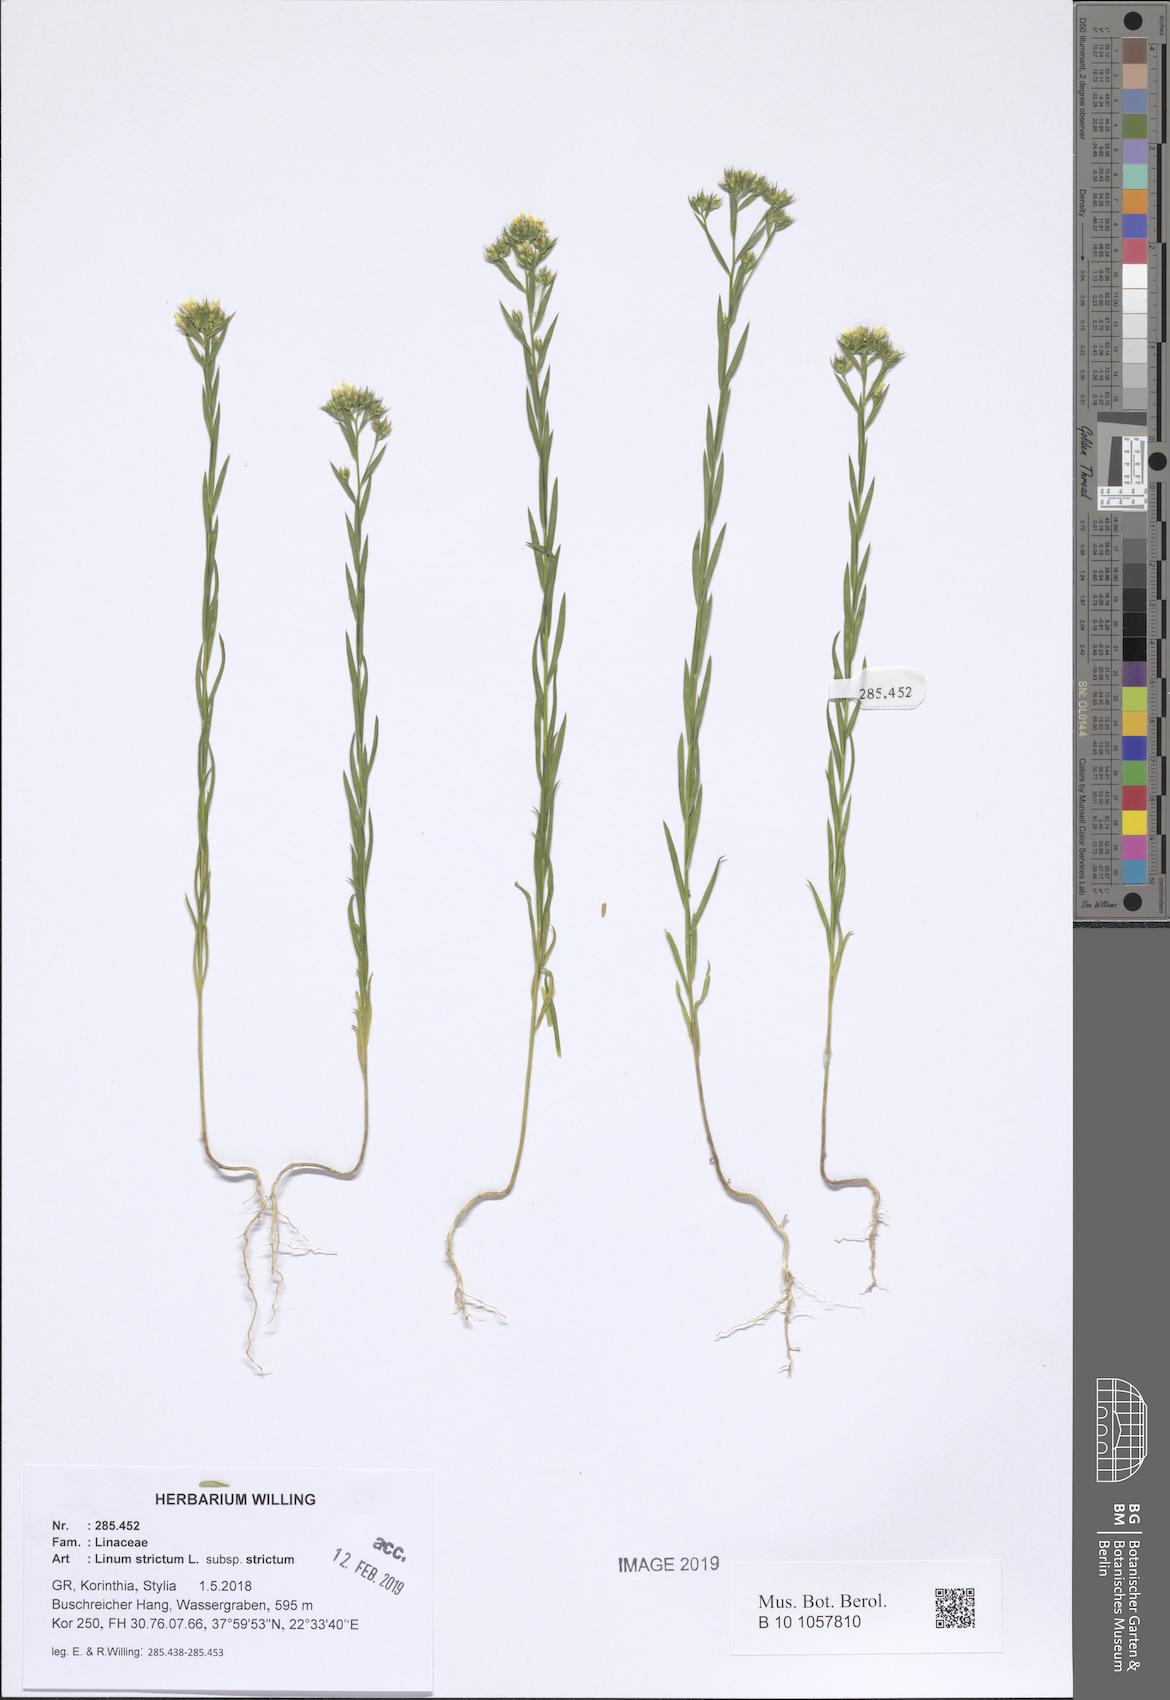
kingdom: Plantae
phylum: Tracheophyta
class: Magnoliopsida
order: Malpighiales
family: Linaceae
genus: Linum
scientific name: Linum strictum
